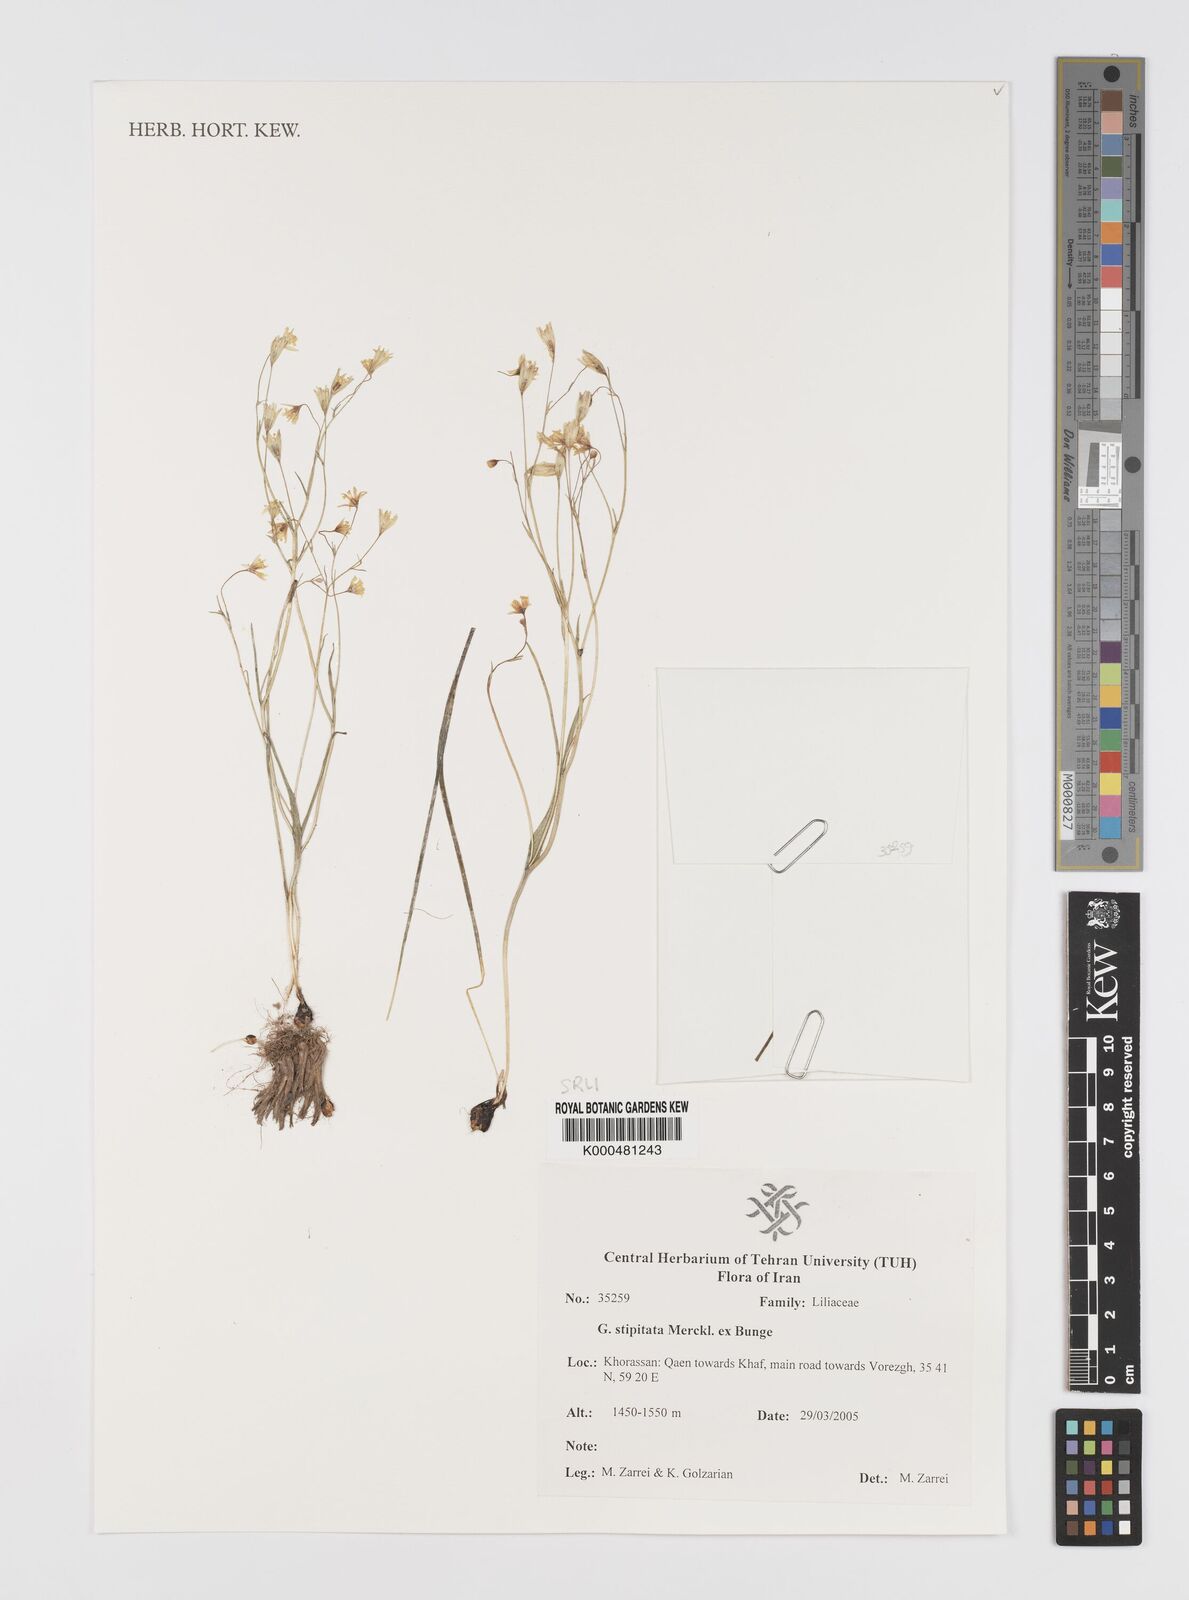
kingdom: Plantae
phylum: Tracheophyta
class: Liliopsida
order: Liliales
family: Liliaceae
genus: Gagea
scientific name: Gagea kunawurensis
